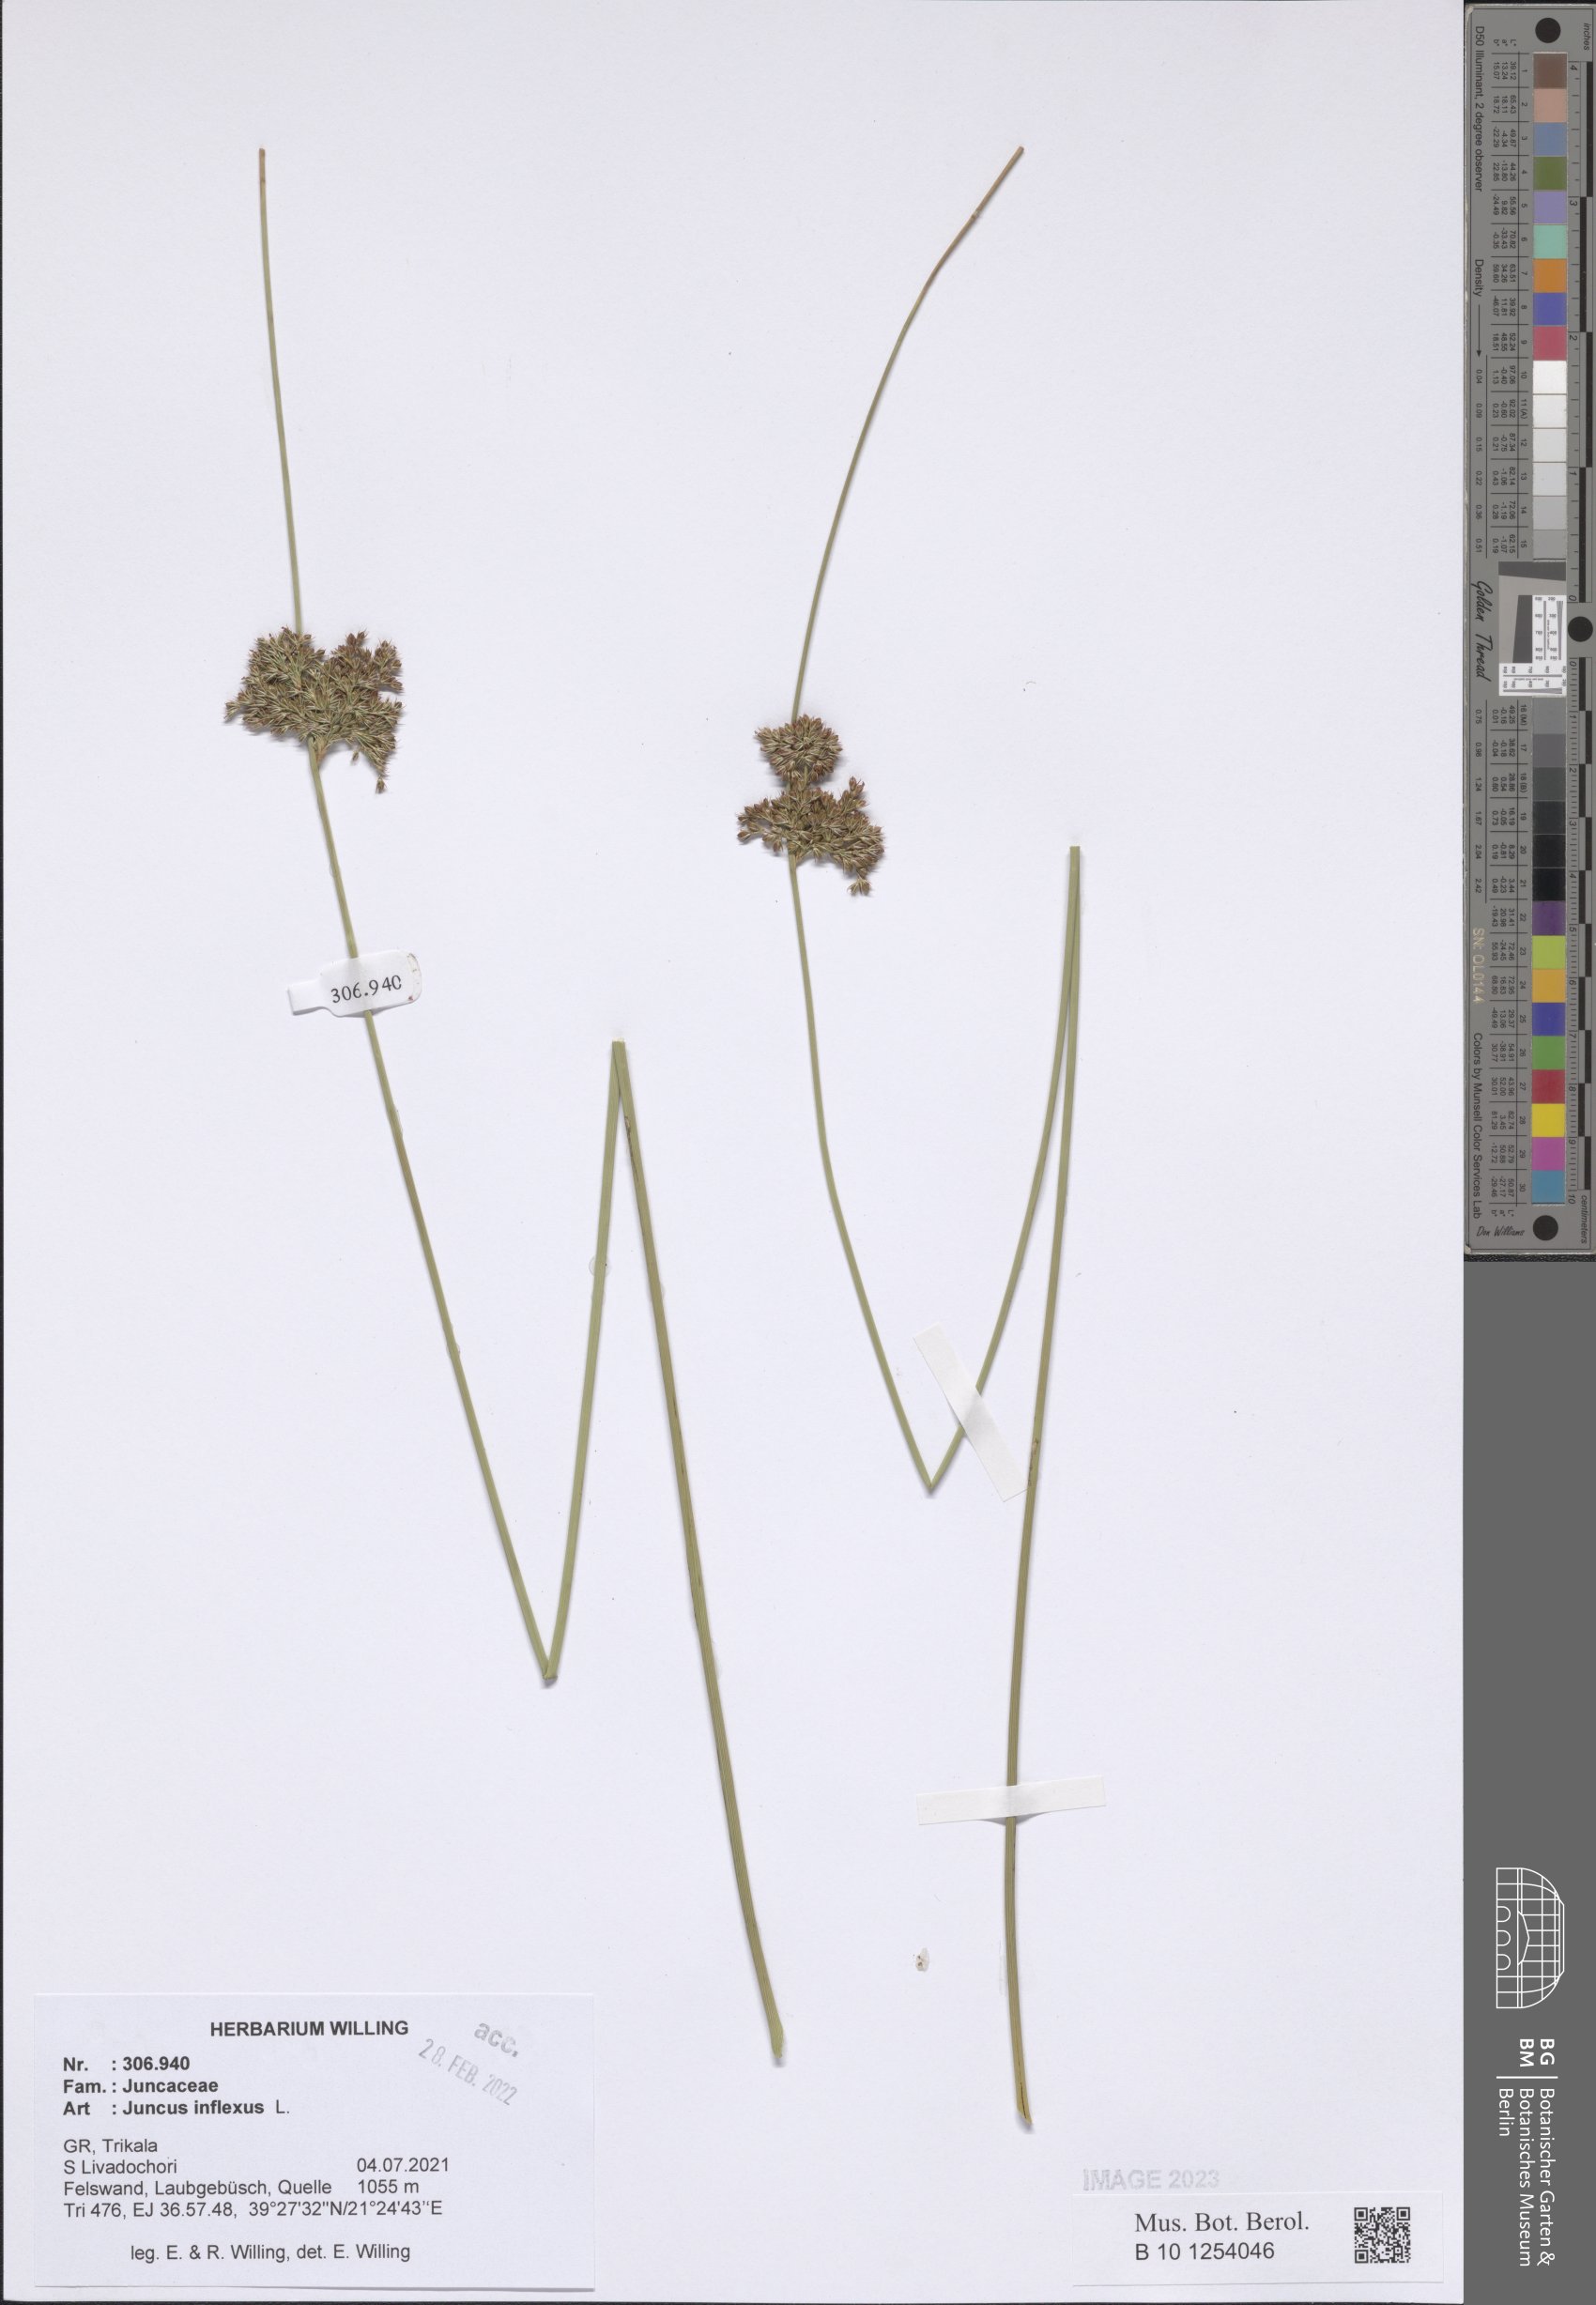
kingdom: Plantae
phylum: Tracheophyta
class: Liliopsida
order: Poales
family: Juncaceae
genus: Juncus
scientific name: Juncus inflexus
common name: Hard rush
